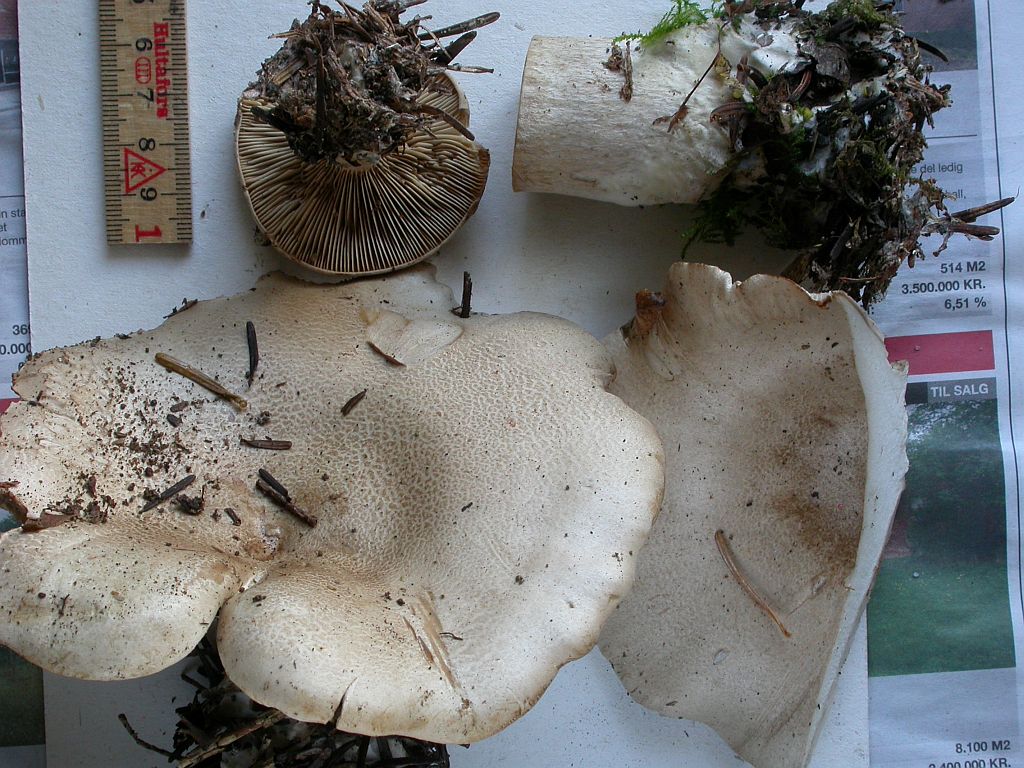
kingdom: Fungi
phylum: Basidiomycota
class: Agaricomycetes
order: Agaricales
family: Pseudoclitocybaceae
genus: Clitopaxillus
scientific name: Clitopaxillus fibulatus
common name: bestøvlet tragthat
